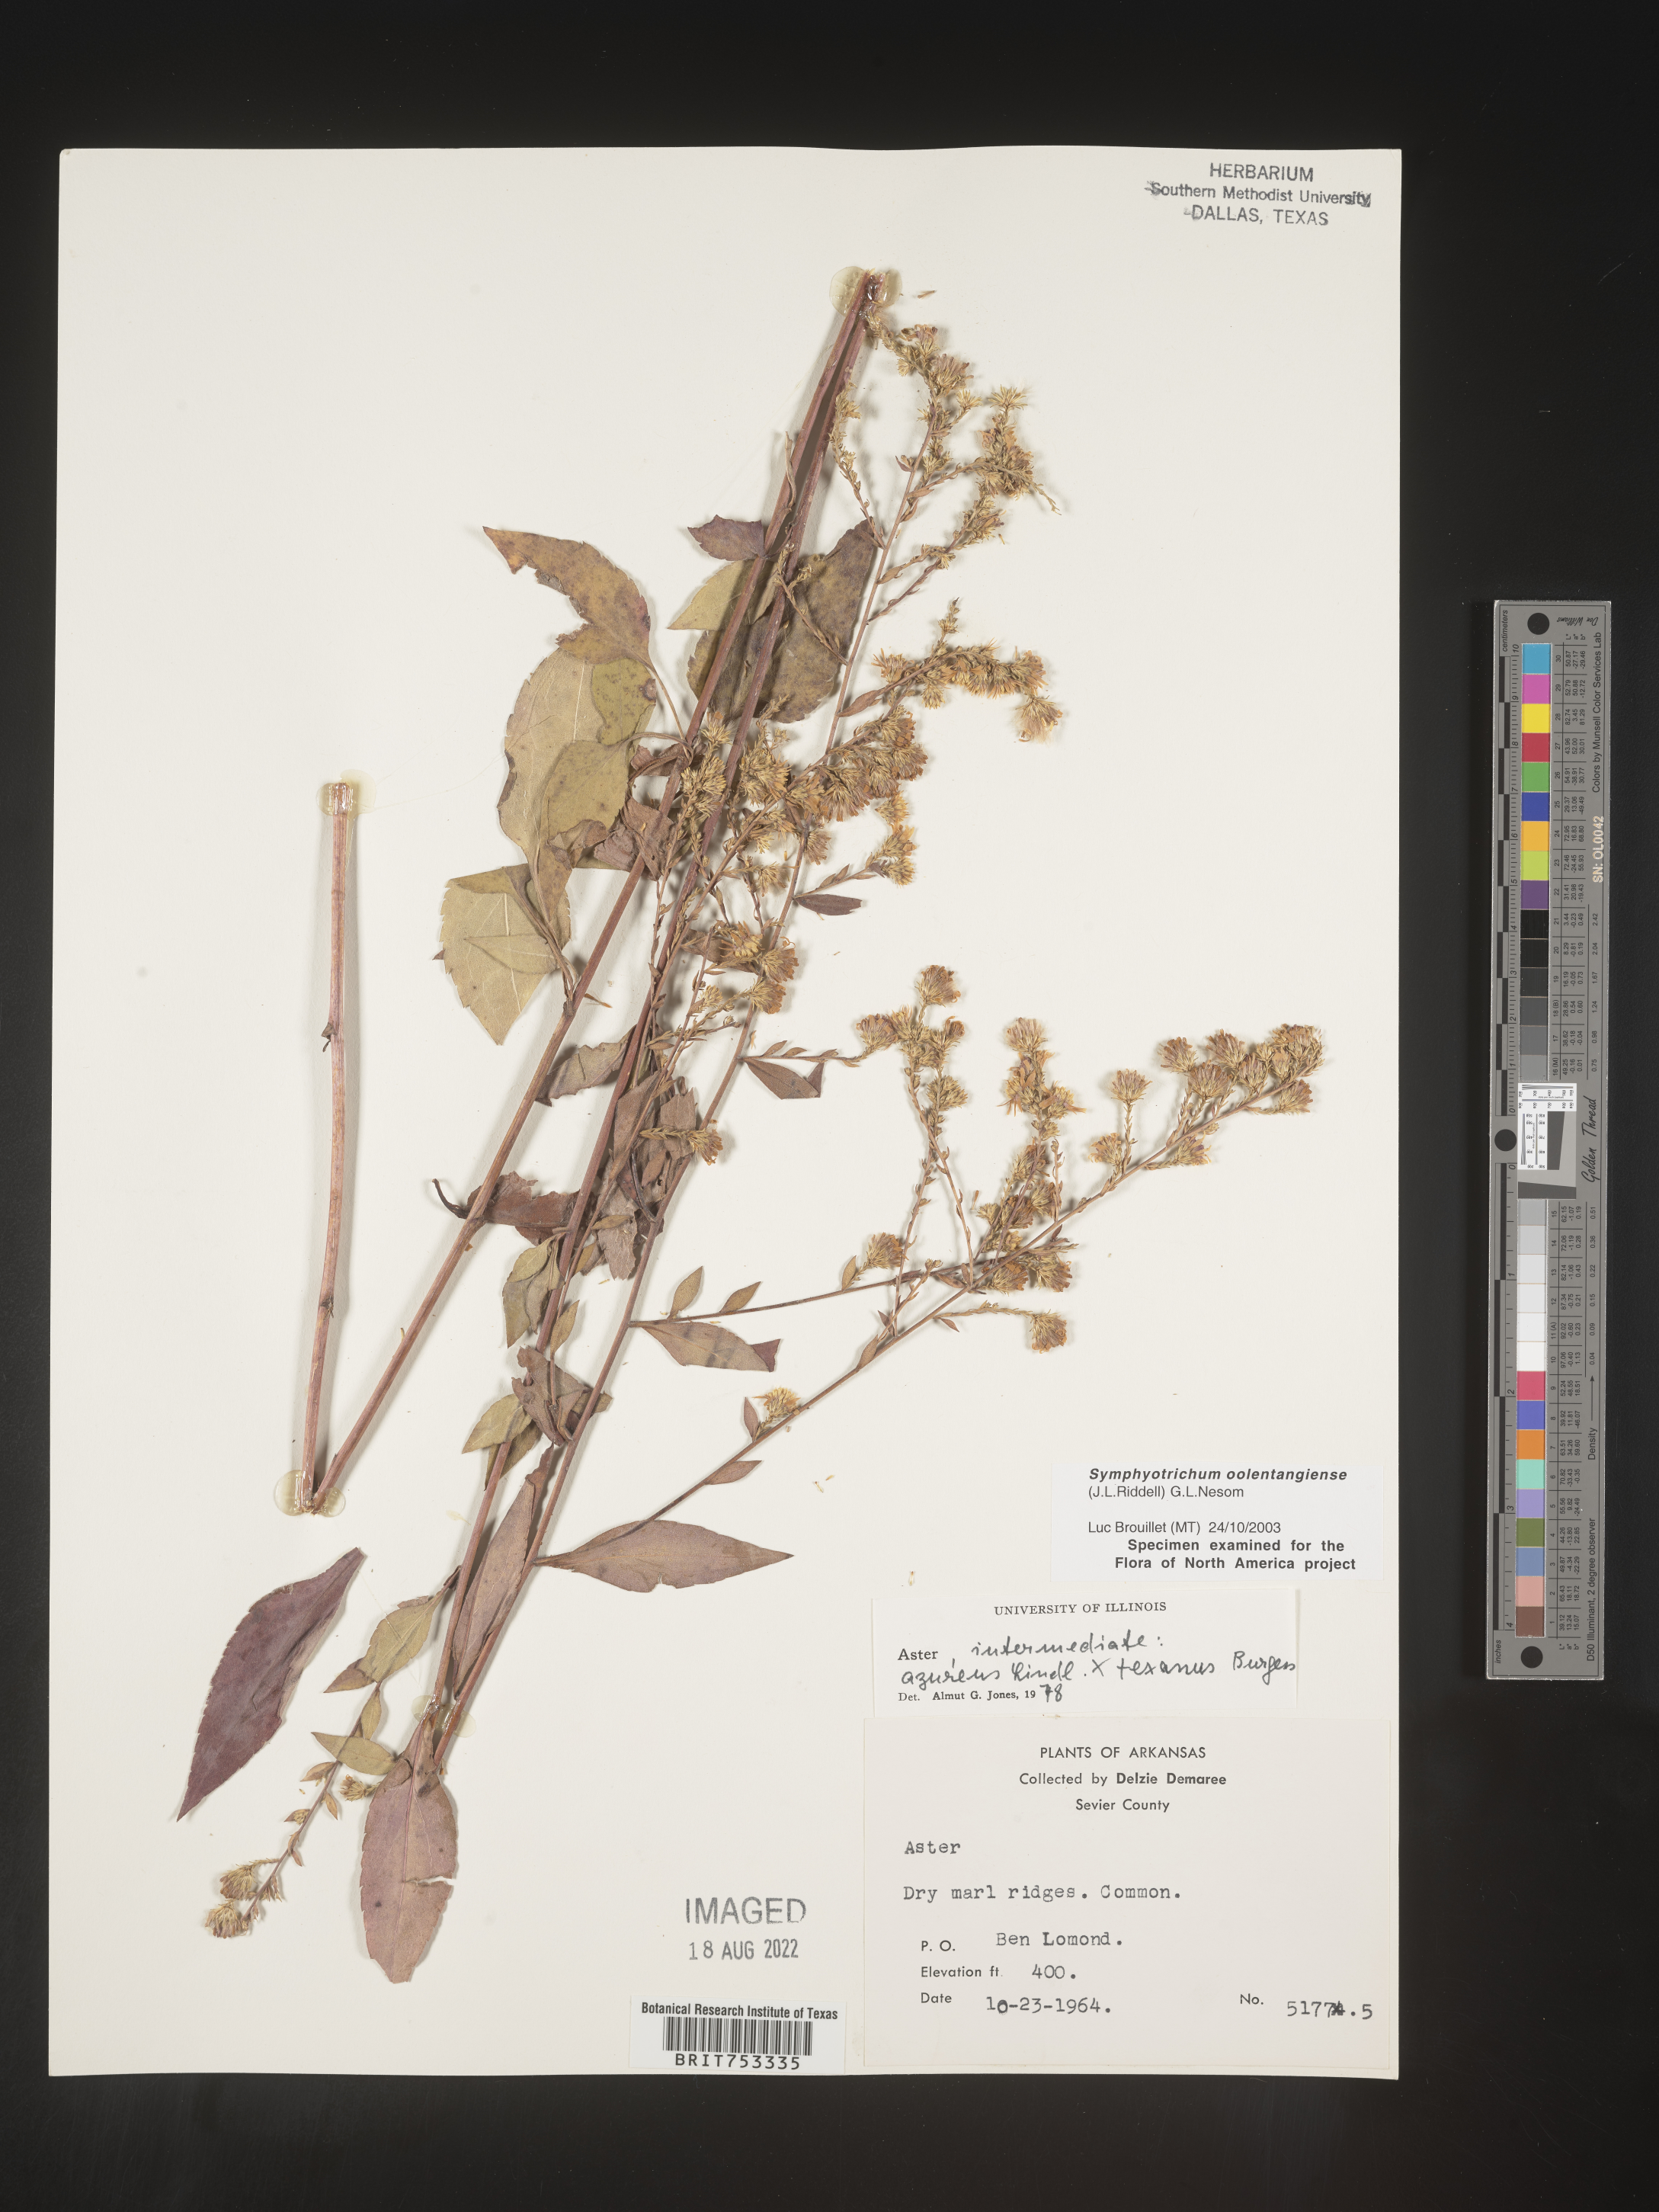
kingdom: Plantae
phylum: Tracheophyta
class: Magnoliopsida
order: Asterales
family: Asteraceae
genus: Symphyotrichum
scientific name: Symphyotrichum oolentangiense
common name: Azure aster
